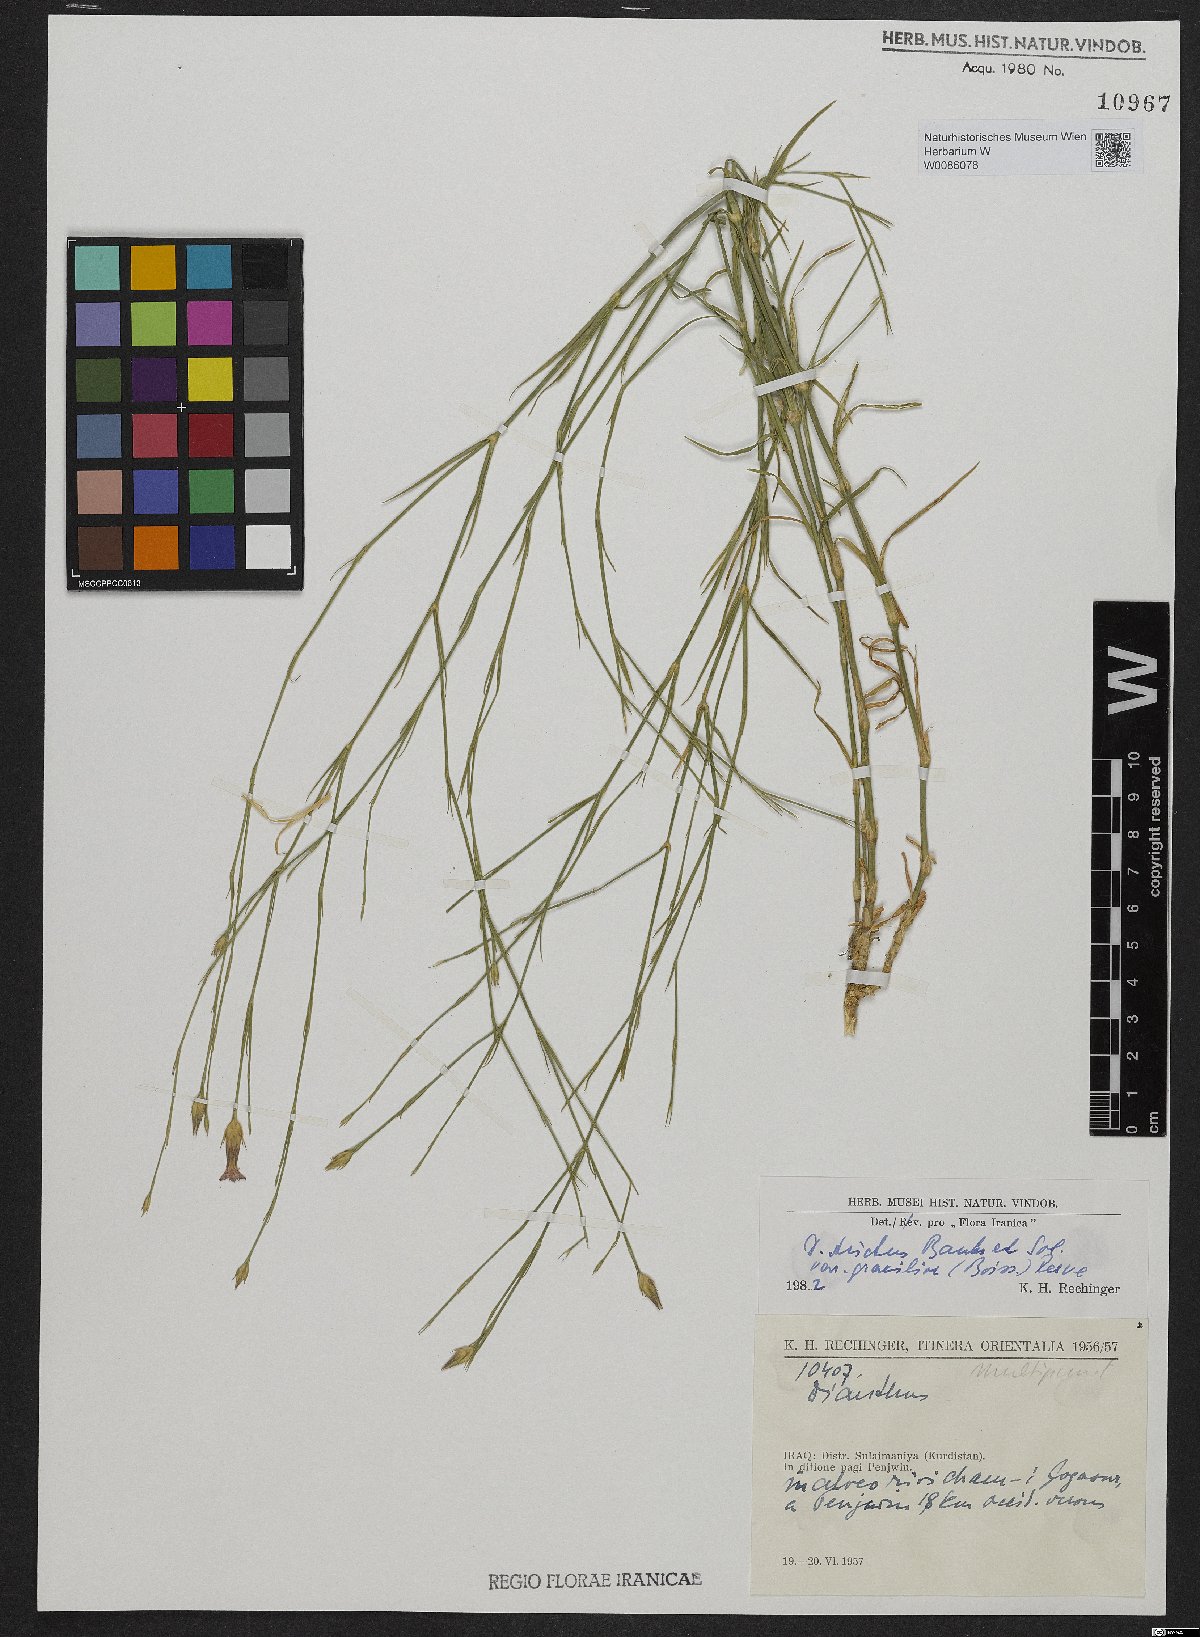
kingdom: Plantae
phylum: Tracheophyta
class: Magnoliopsida
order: Caryophyllales
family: Caryophyllaceae
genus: Dianthus
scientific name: Dianthus strictus
